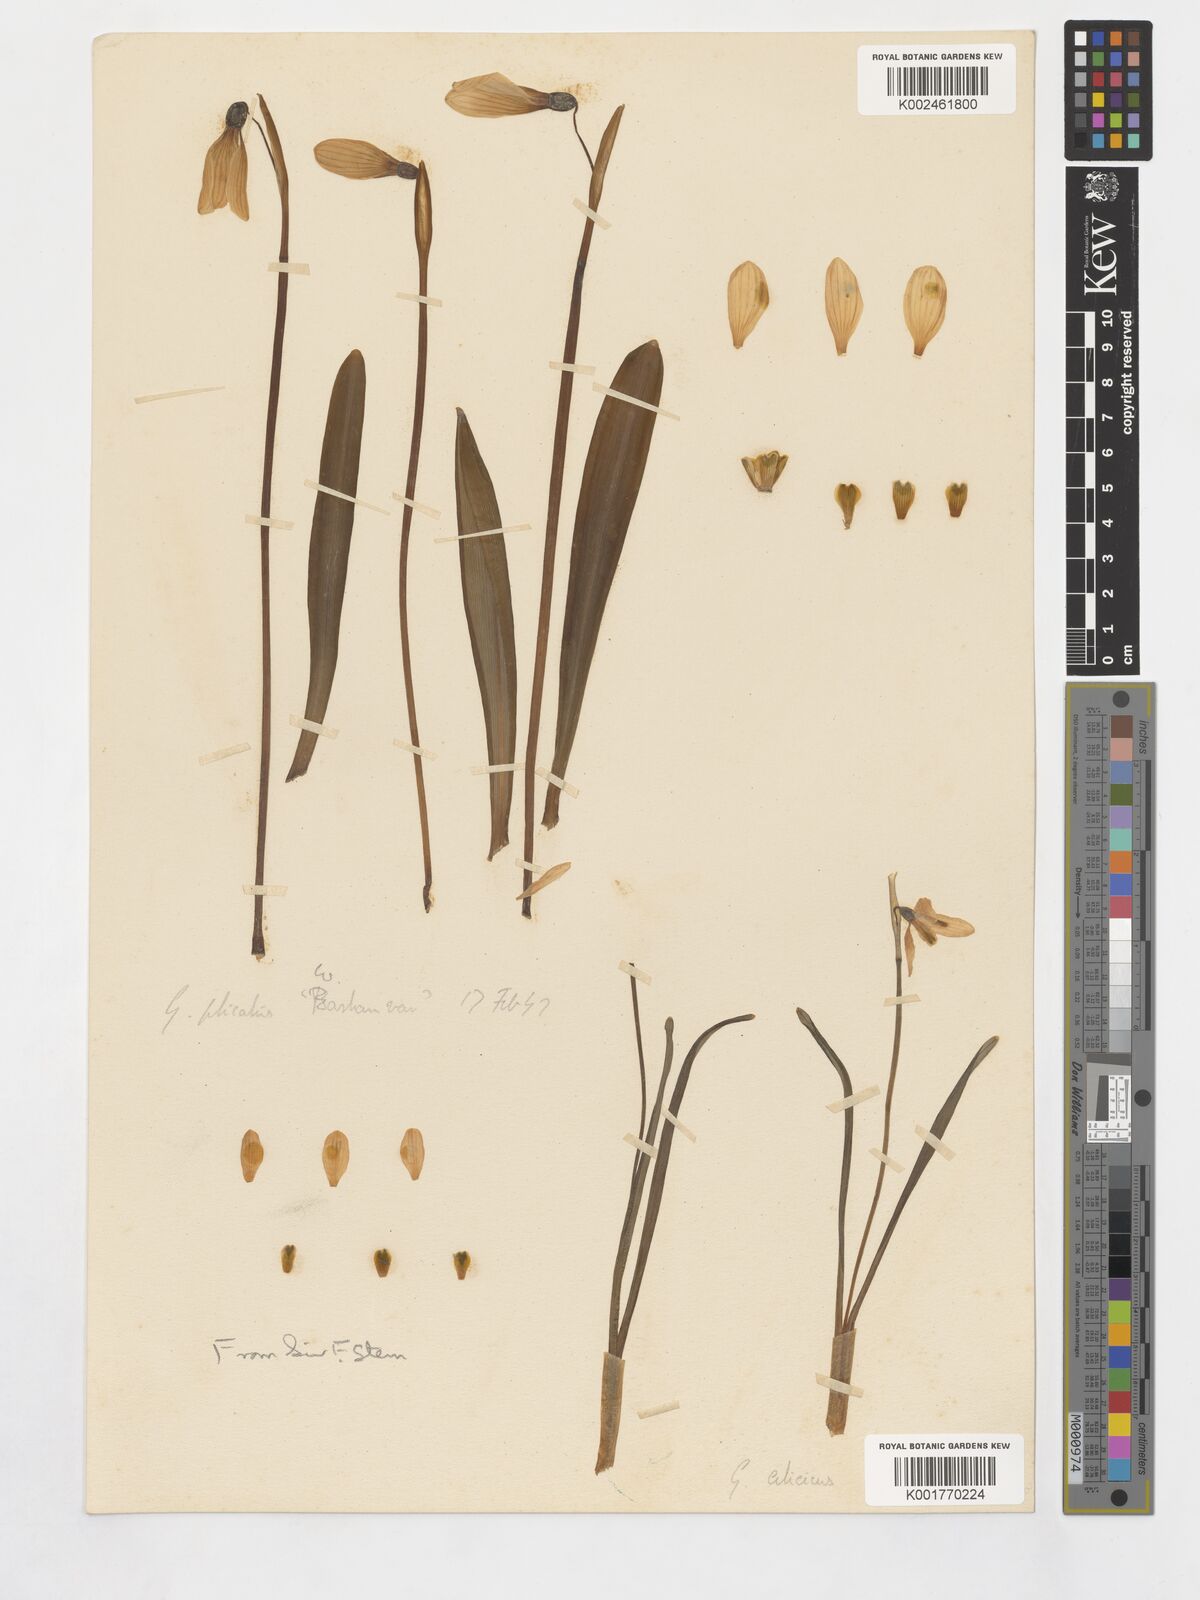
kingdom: Plantae
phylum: Tracheophyta
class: Liliopsida
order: Asparagales
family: Amaryllidaceae
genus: Galanthus
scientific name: Galanthus cilicicus
